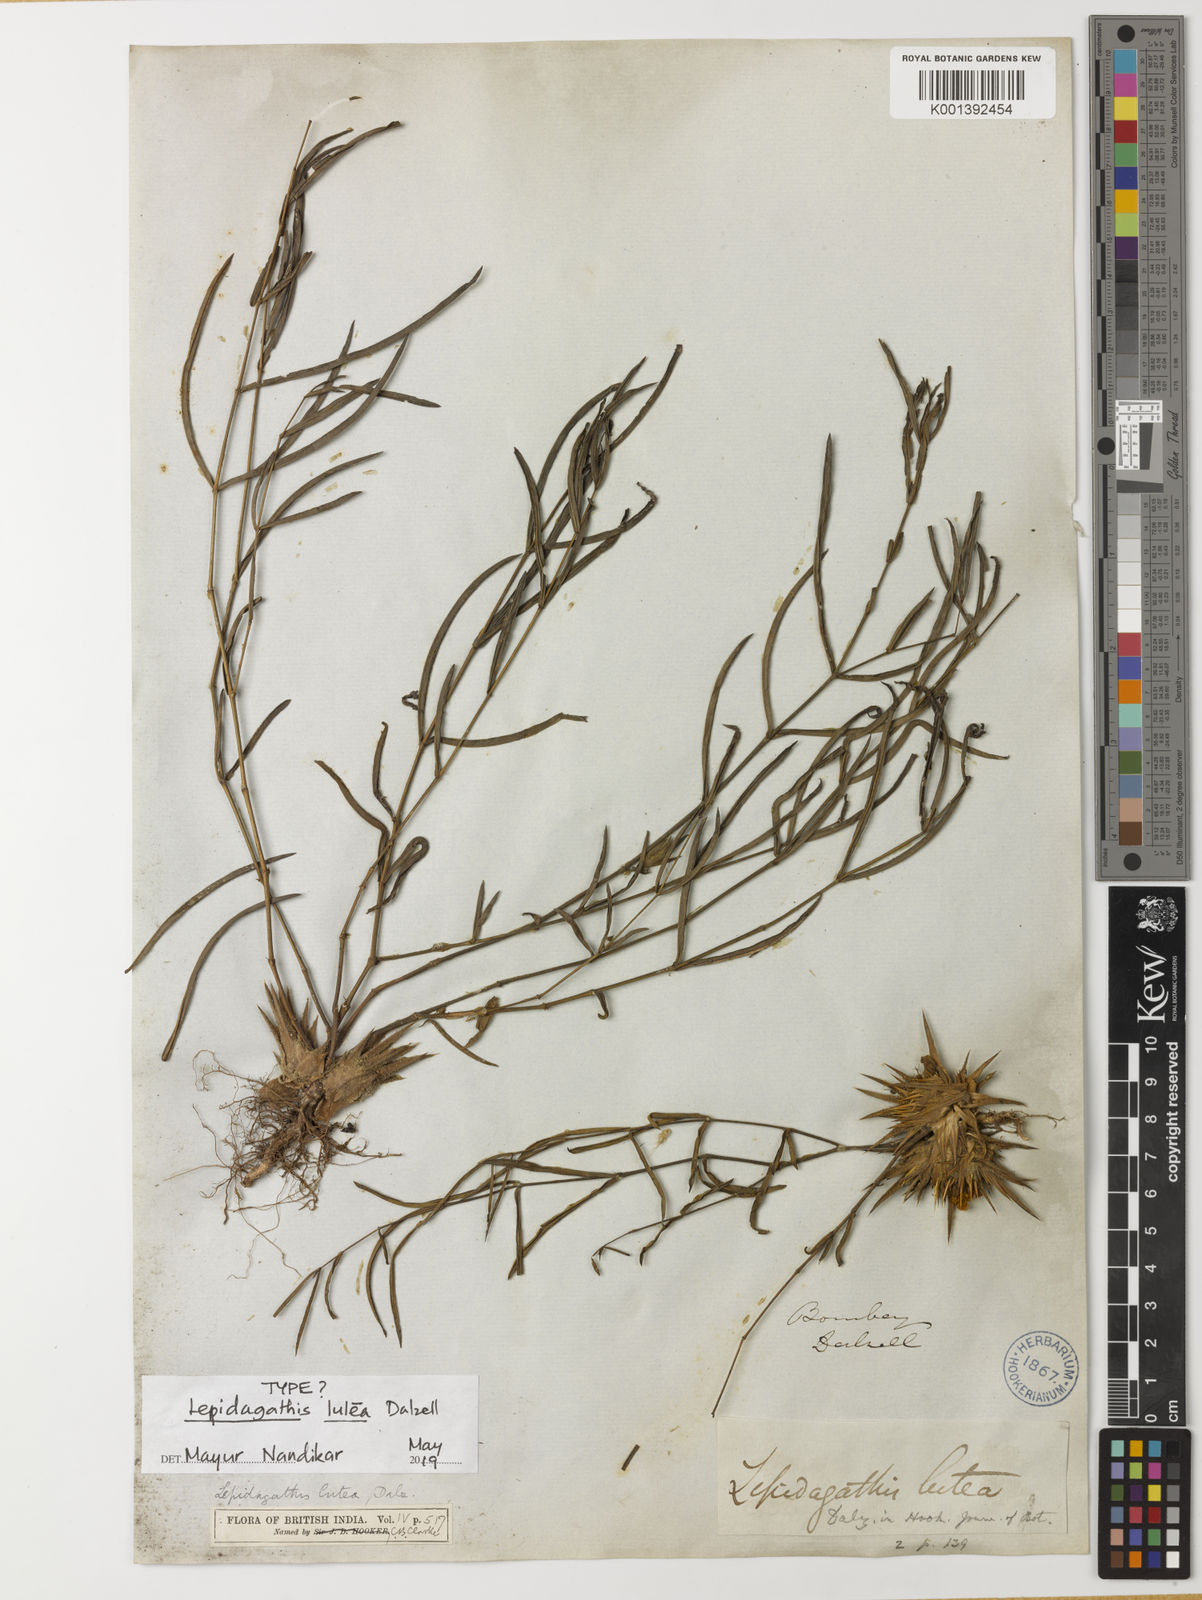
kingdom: Plantae
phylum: Tracheophyta
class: Magnoliopsida
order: Lamiales
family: Acanthaceae
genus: Lepidagathis
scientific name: Lepidagathis lutea
